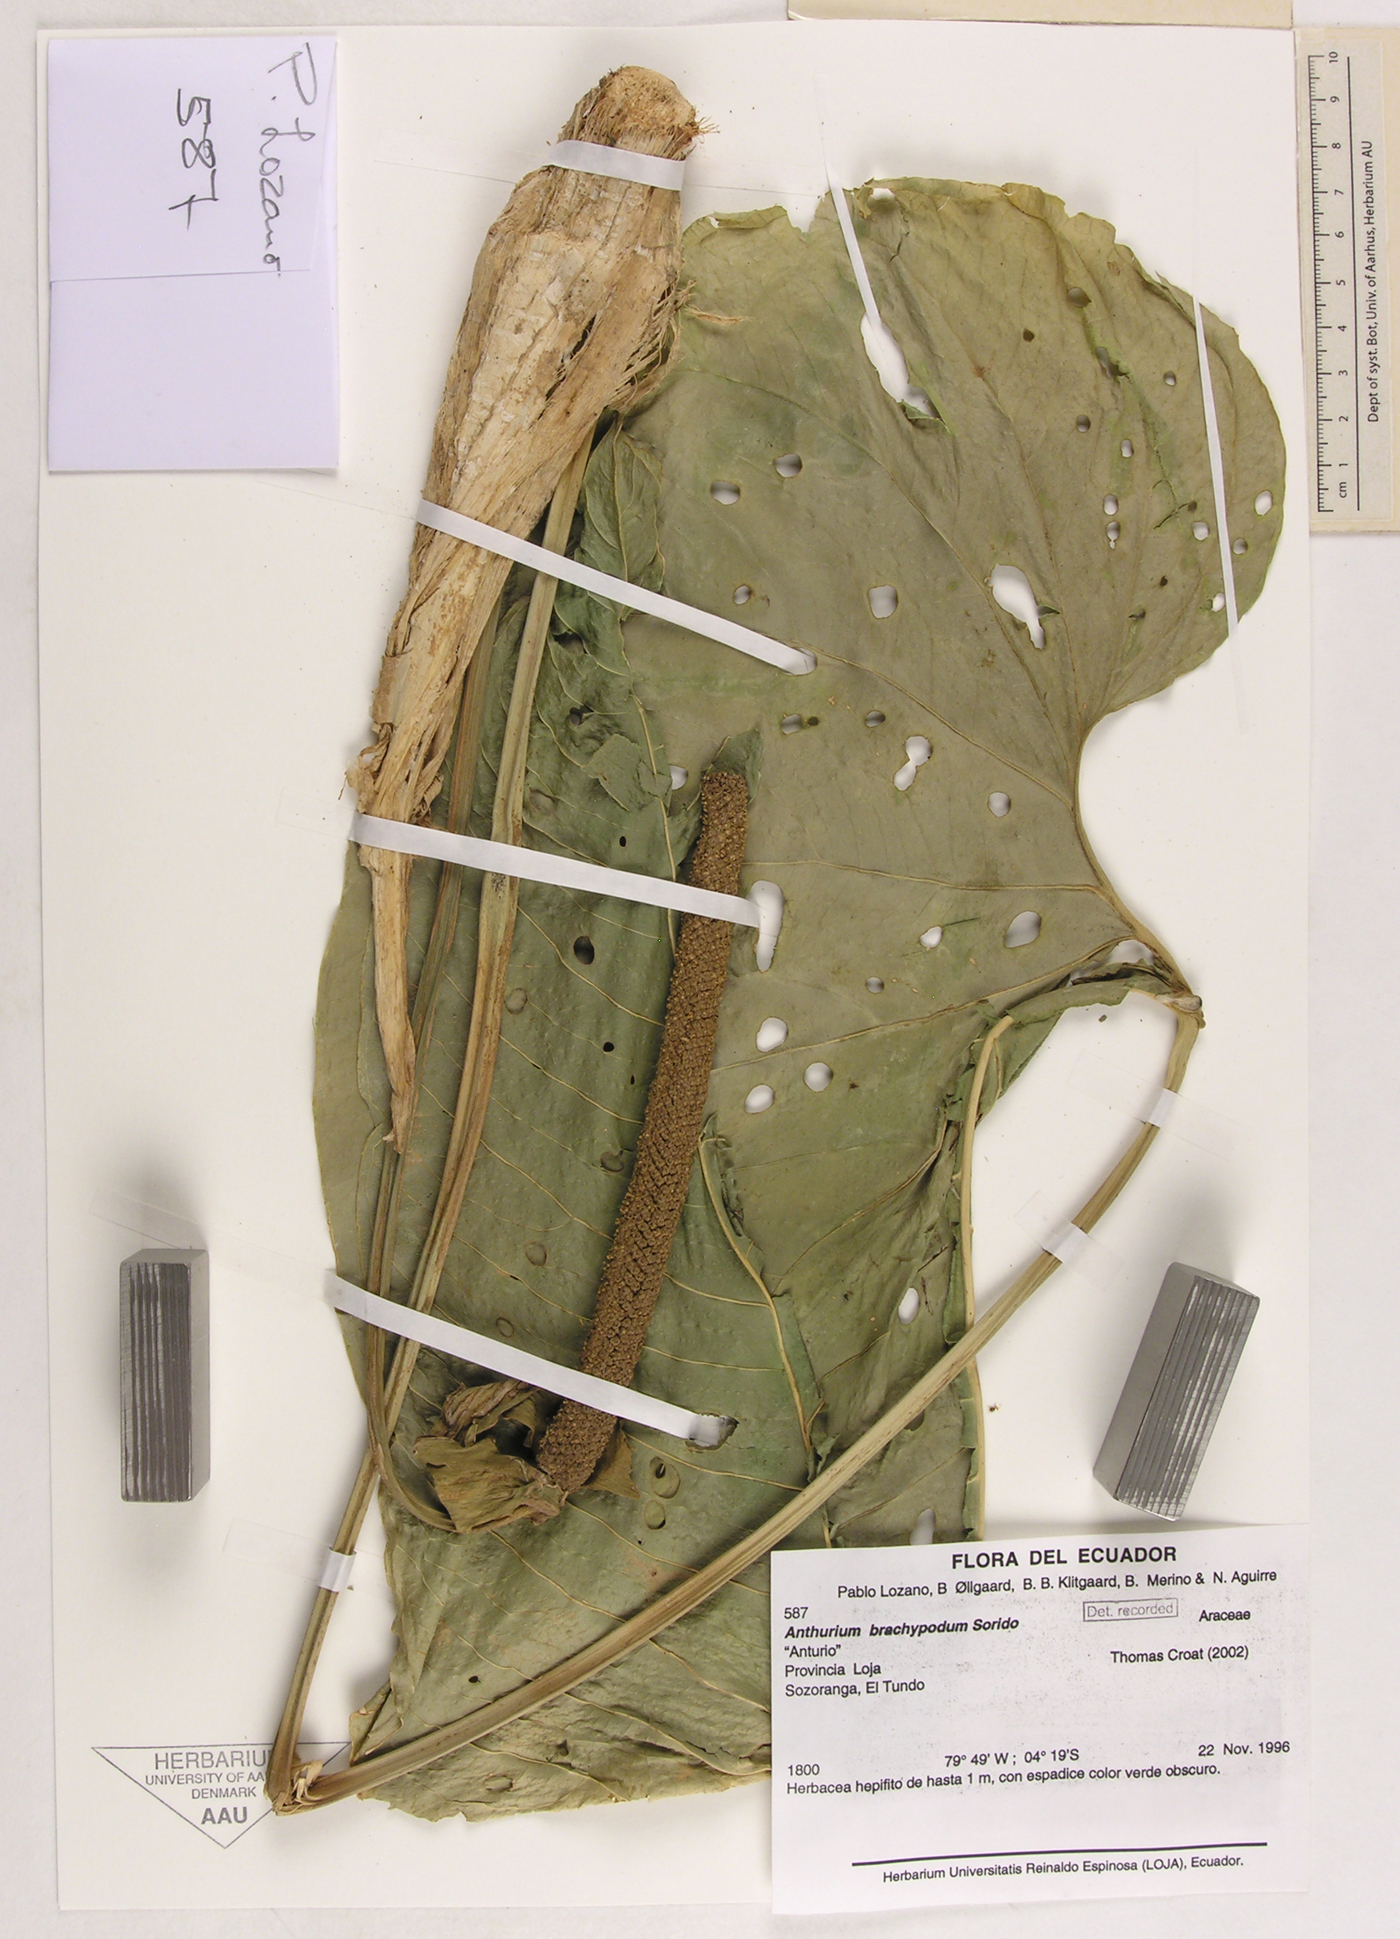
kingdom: Plantae
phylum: Tracheophyta
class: Liliopsida
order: Alismatales
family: Araceae
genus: Anthurium
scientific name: Anthurium brachypodum
